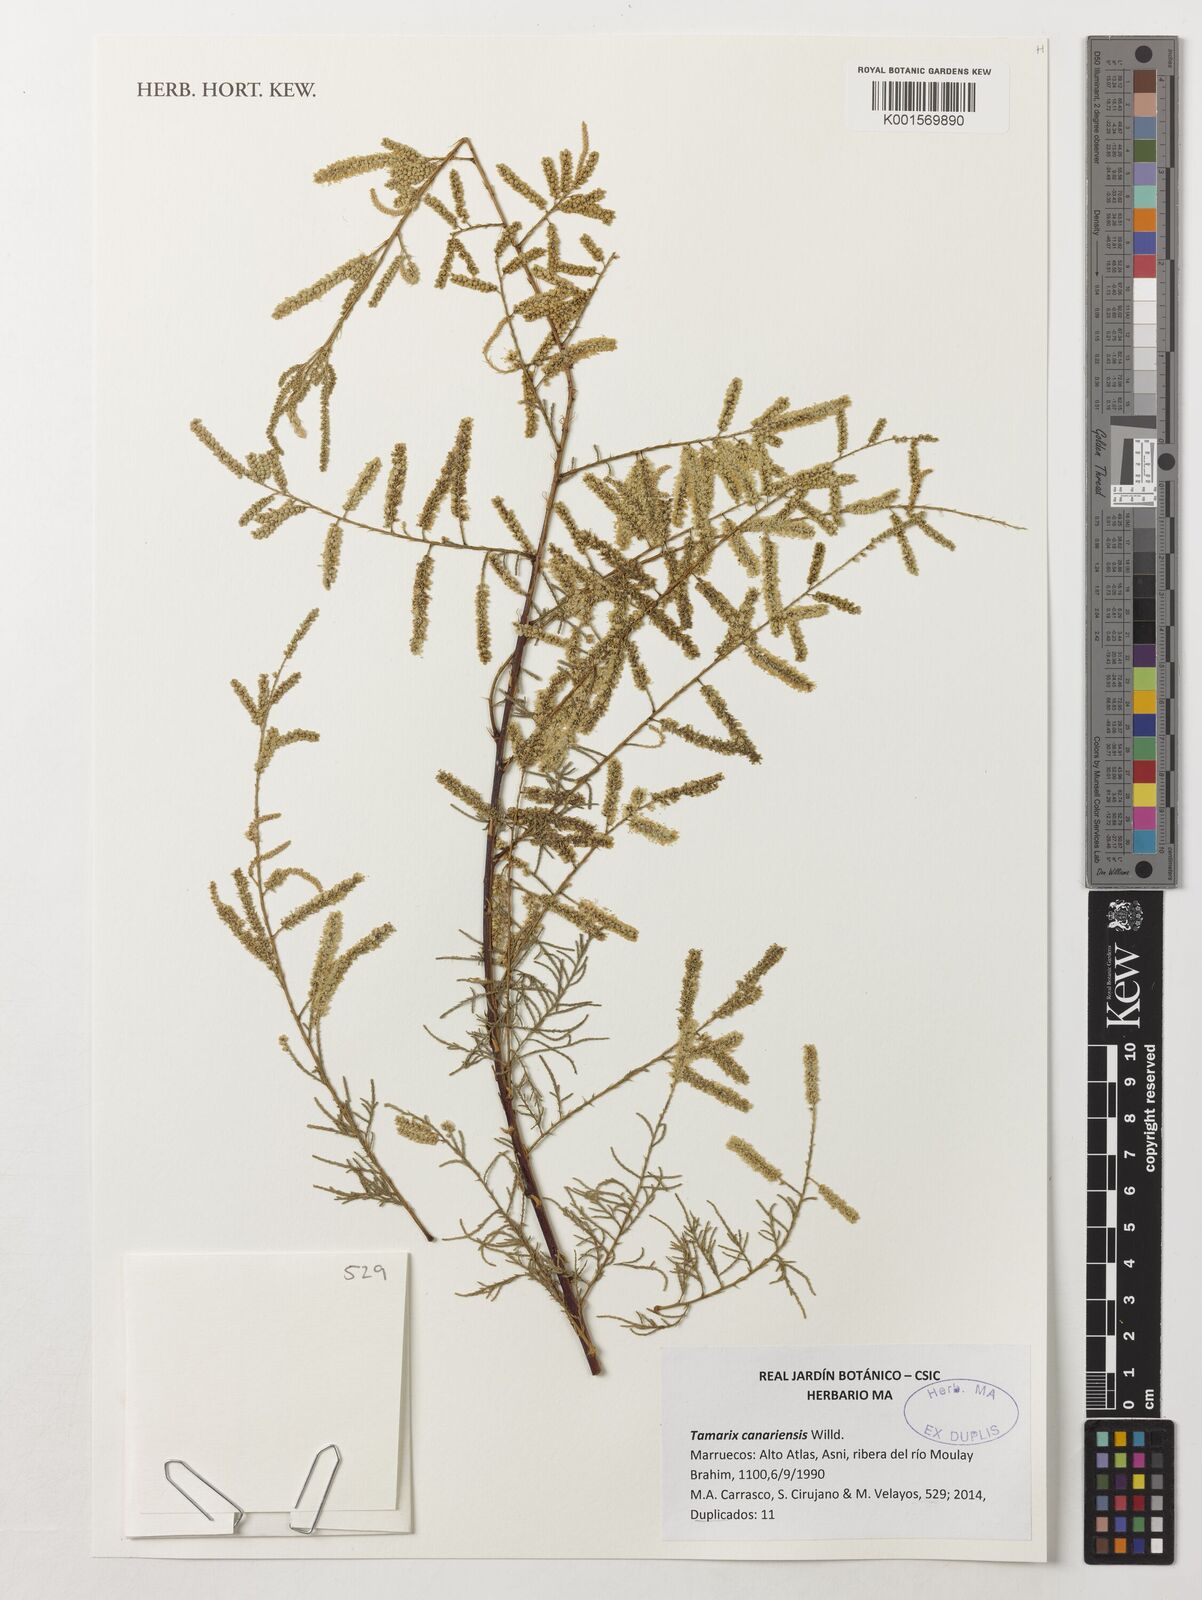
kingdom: Plantae
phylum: Tracheophyta
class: Magnoliopsida
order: Caryophyllales
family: Tamaricaceae
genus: Tamarix
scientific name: Tamarix canariensis
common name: Canary island tamarisk
